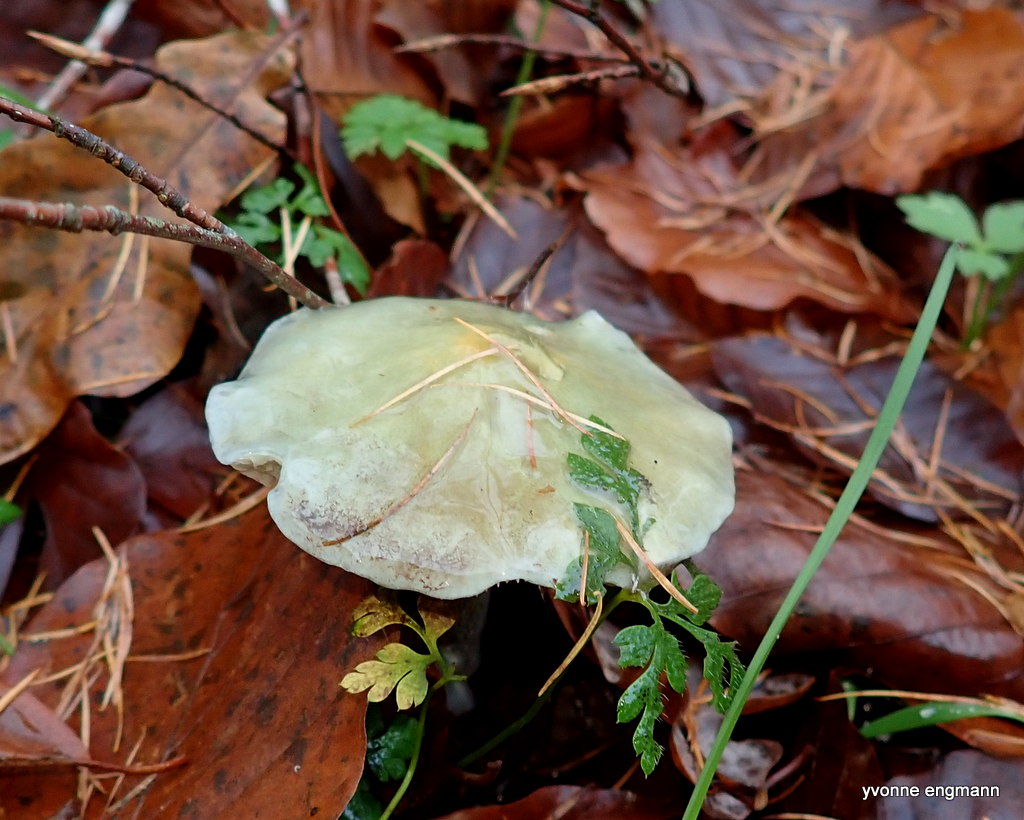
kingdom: Fungi
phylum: Basidiomycota
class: Agaricomycetes
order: Agaricales
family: Strophariaceae
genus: Stropharia
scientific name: Stropharia cyanea
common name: blågrøn bredblad
